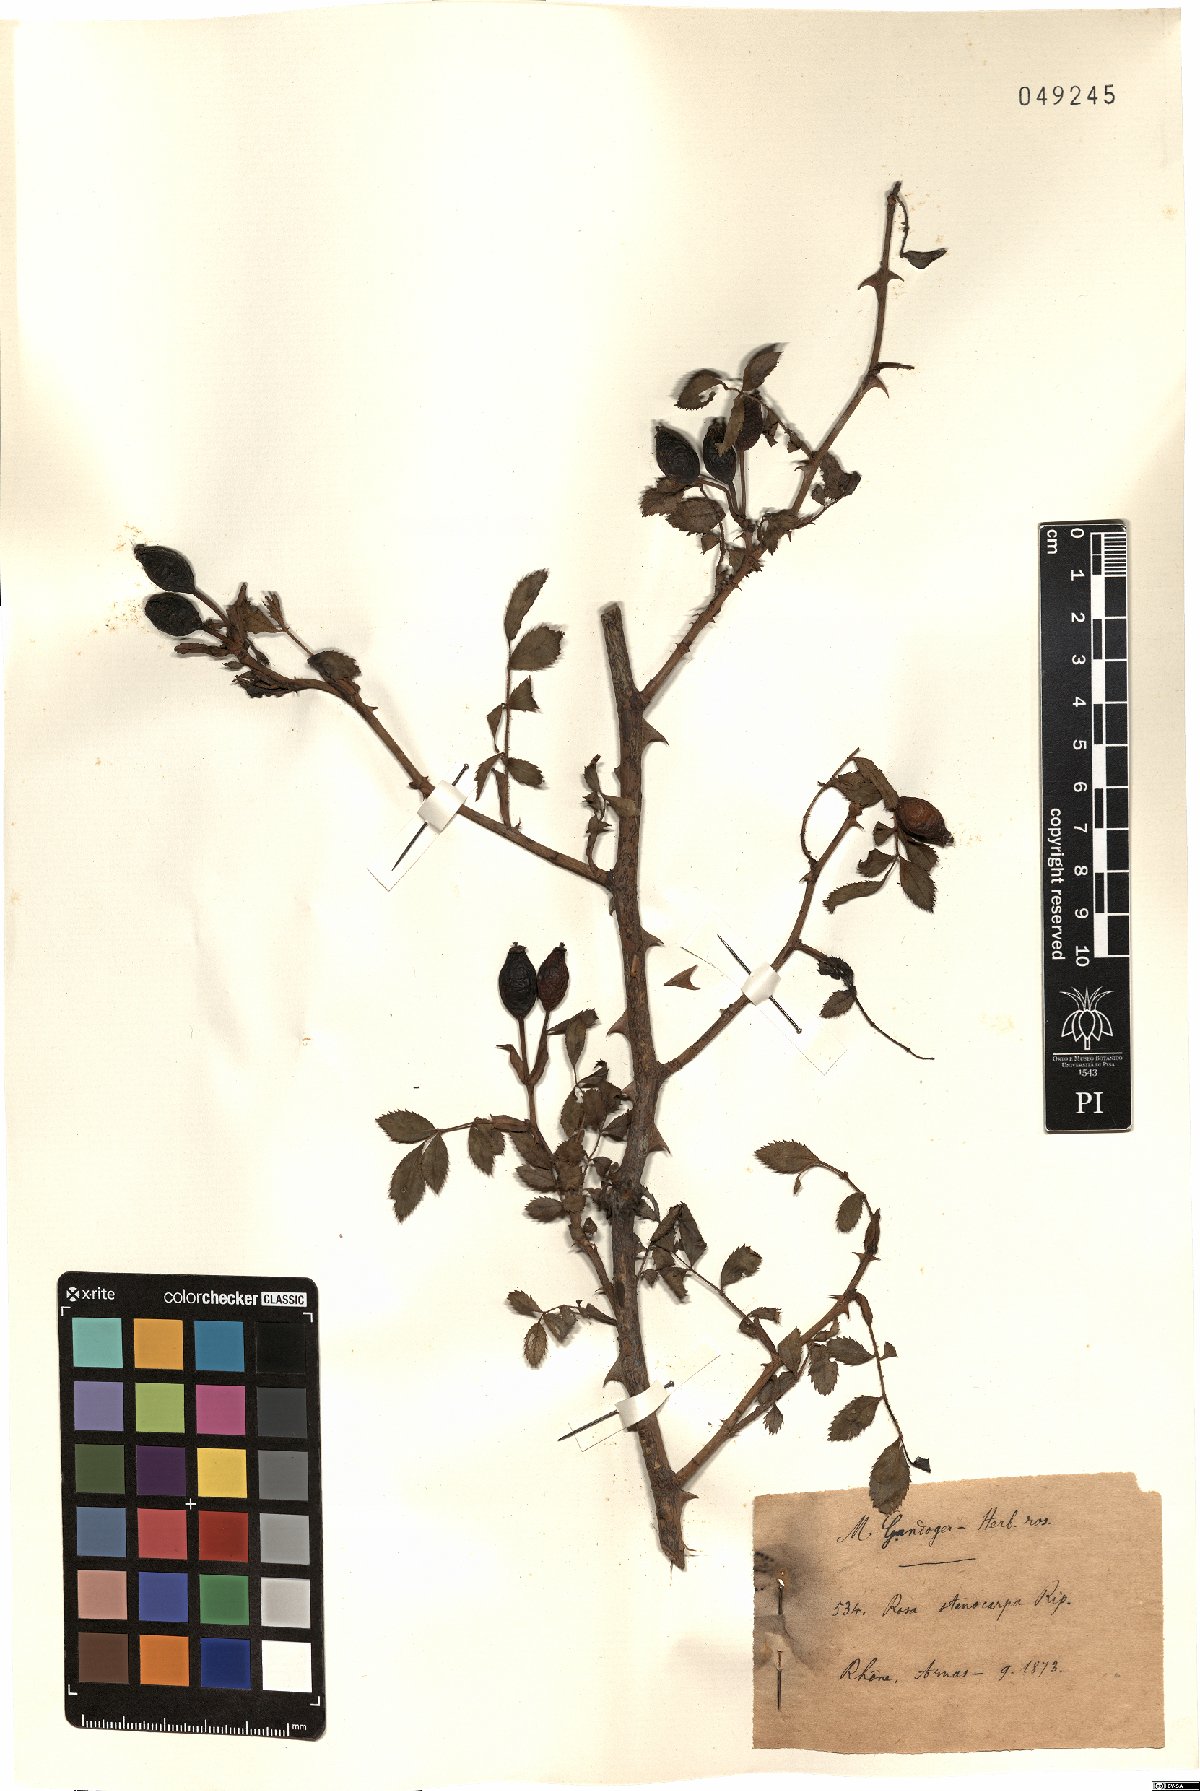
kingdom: Plantae
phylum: Tracheophyta
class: Magnoliopsida
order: Rosales
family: Rosaceae
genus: Rosa
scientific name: Rosa canina
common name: Dog rose
